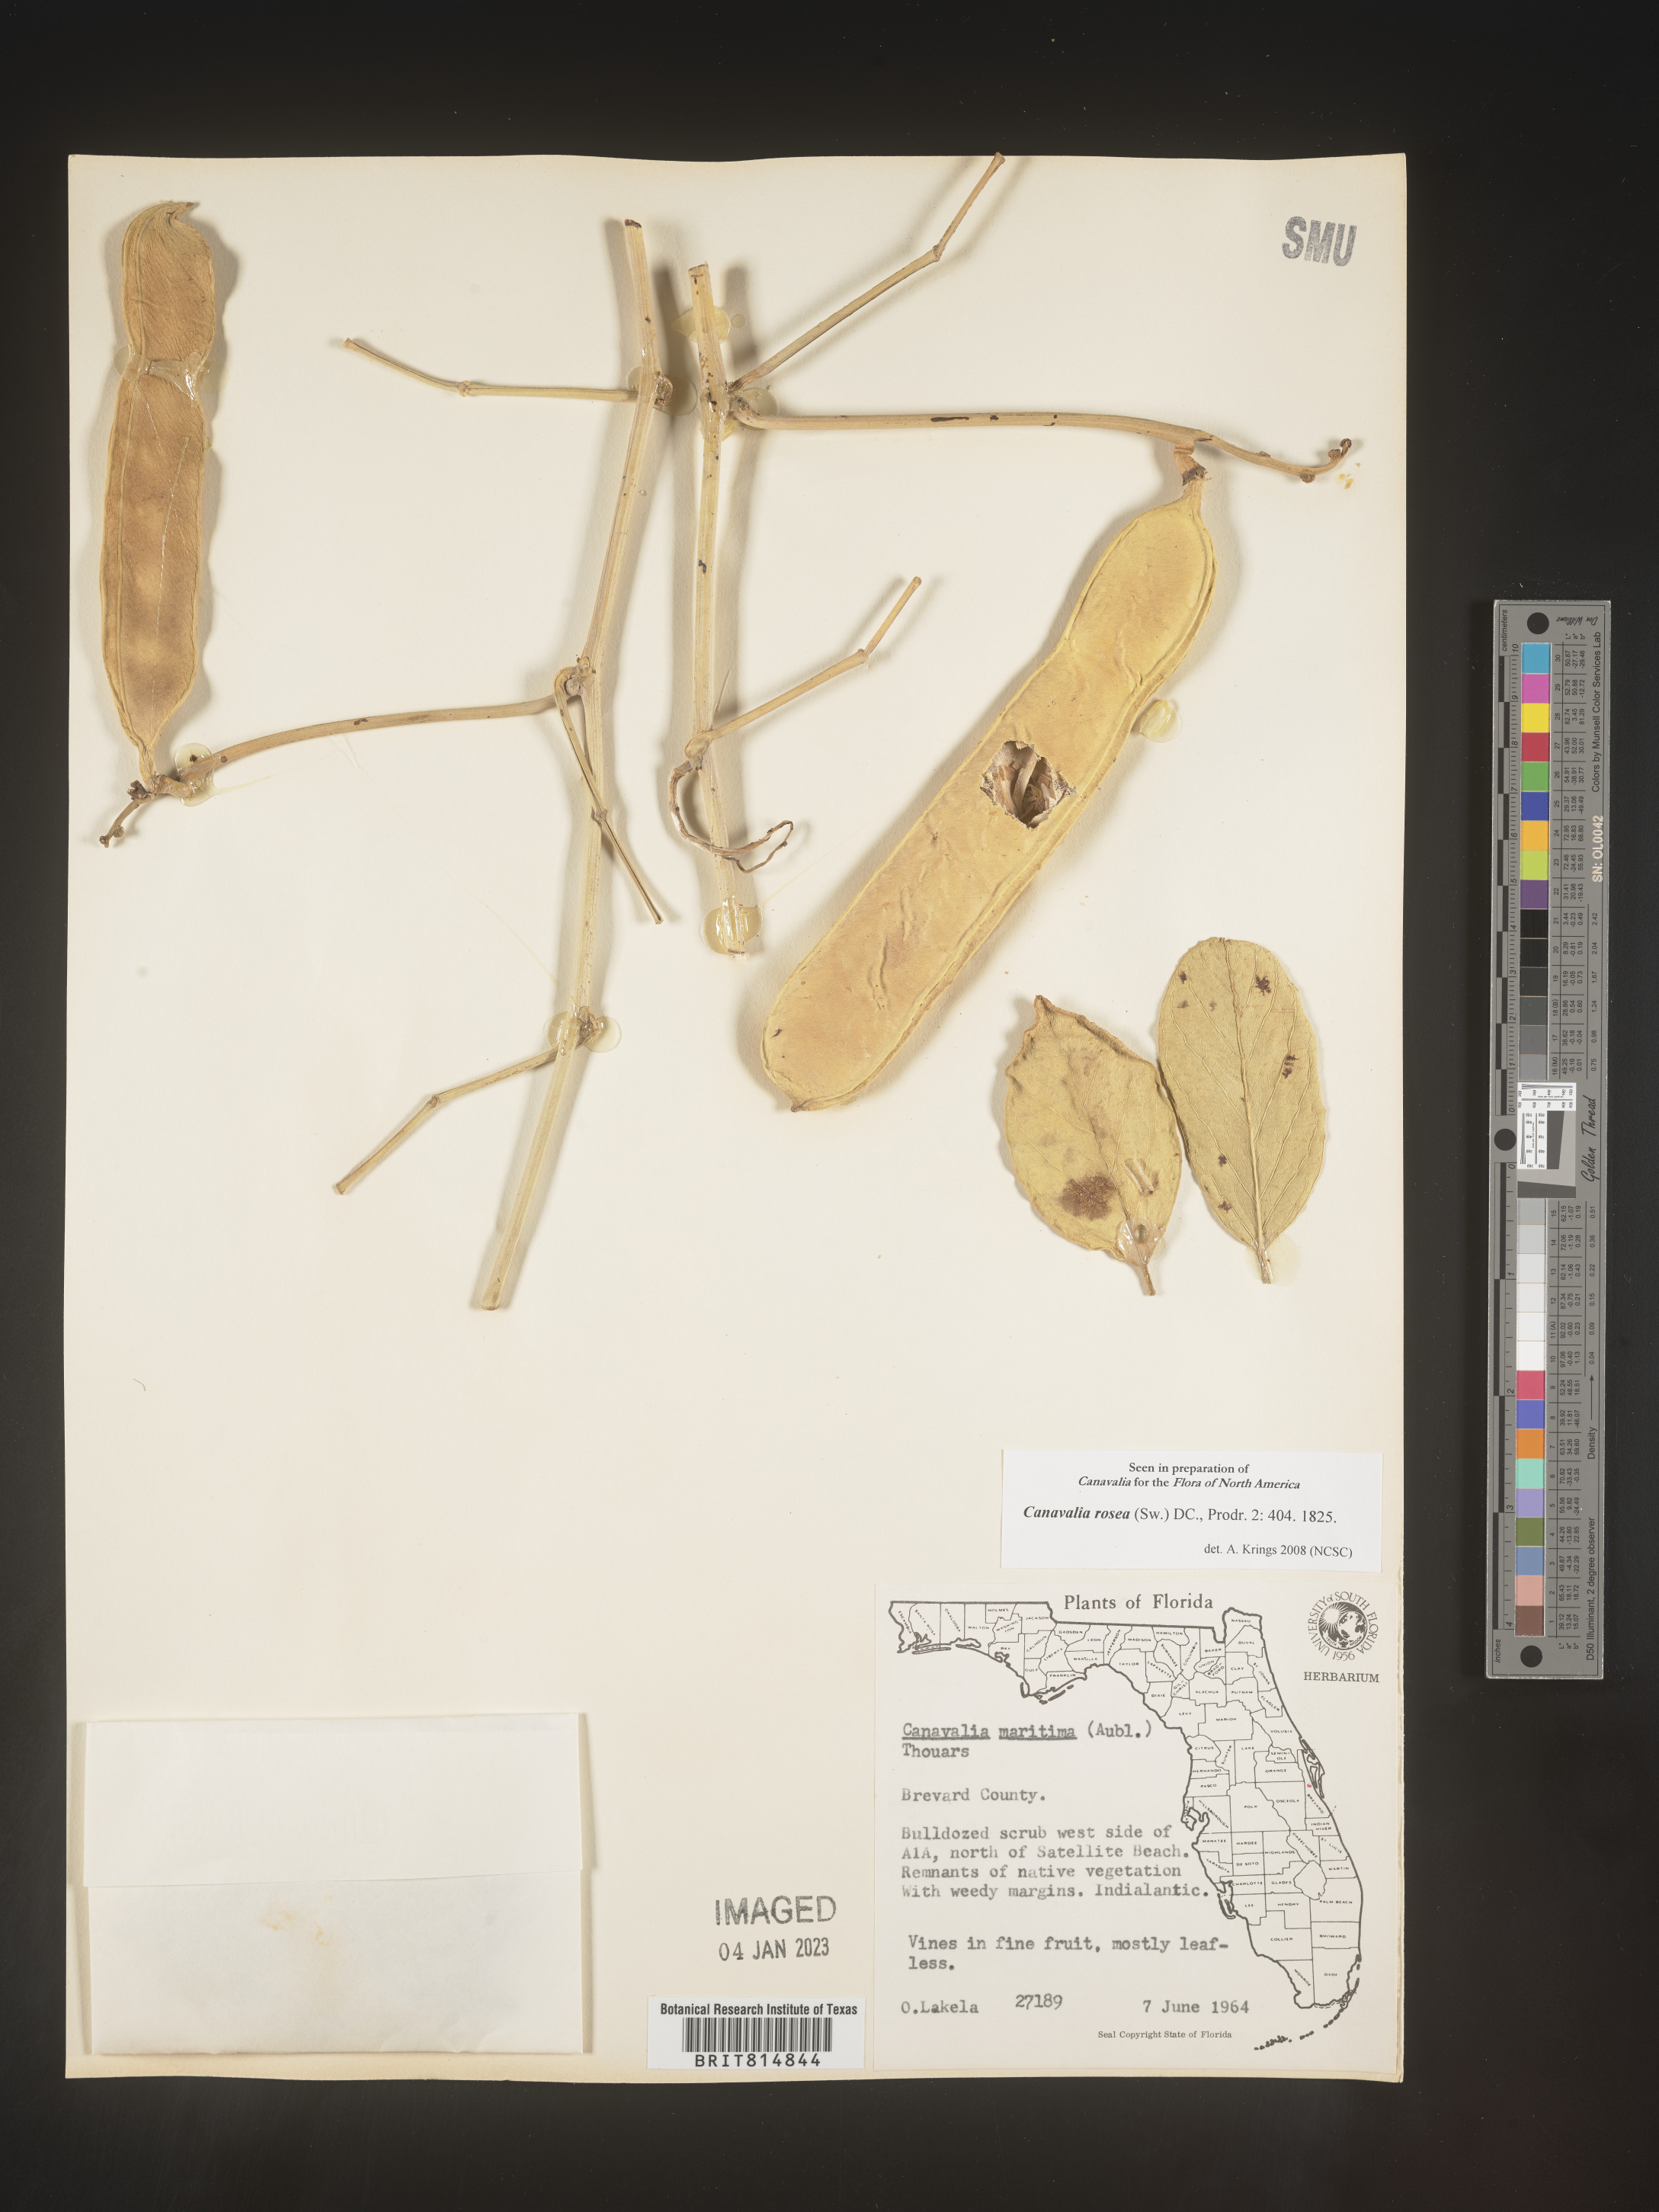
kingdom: Plantae
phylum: Tracheophyta
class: Magnoliopsida
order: Fabales
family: Fabaceae
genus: Canavalia
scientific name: Canavalia
